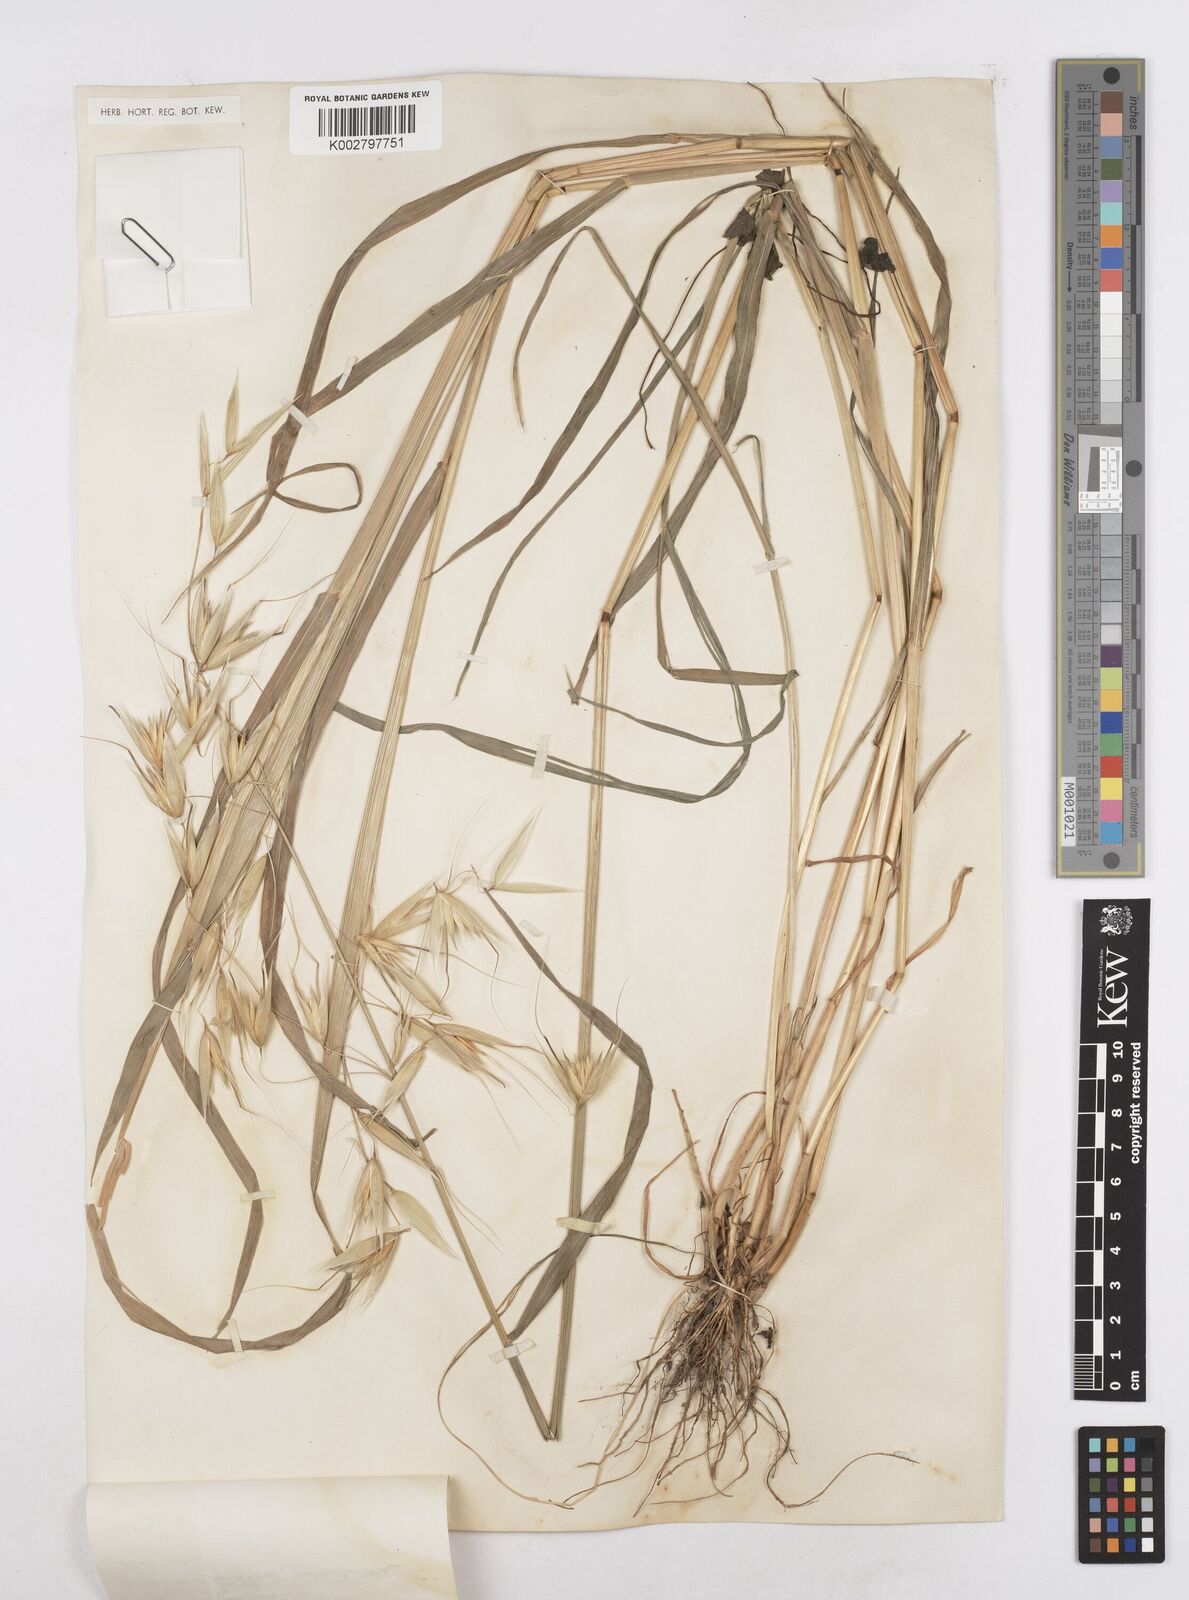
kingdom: Plantae
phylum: Tracheophyta
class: Liliopsida
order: Poales
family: Poaceae
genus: Avena
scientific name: Avena sterilis
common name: Animated oat
